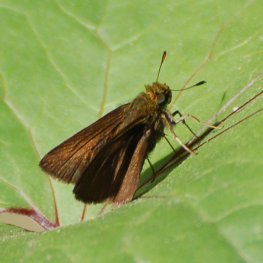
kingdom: Animalia
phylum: Arthropoda
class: Insecta
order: Lepidoptera
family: Hesperiidae
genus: Euphyes
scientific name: Euphyes vestris
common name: Dun Skipper
